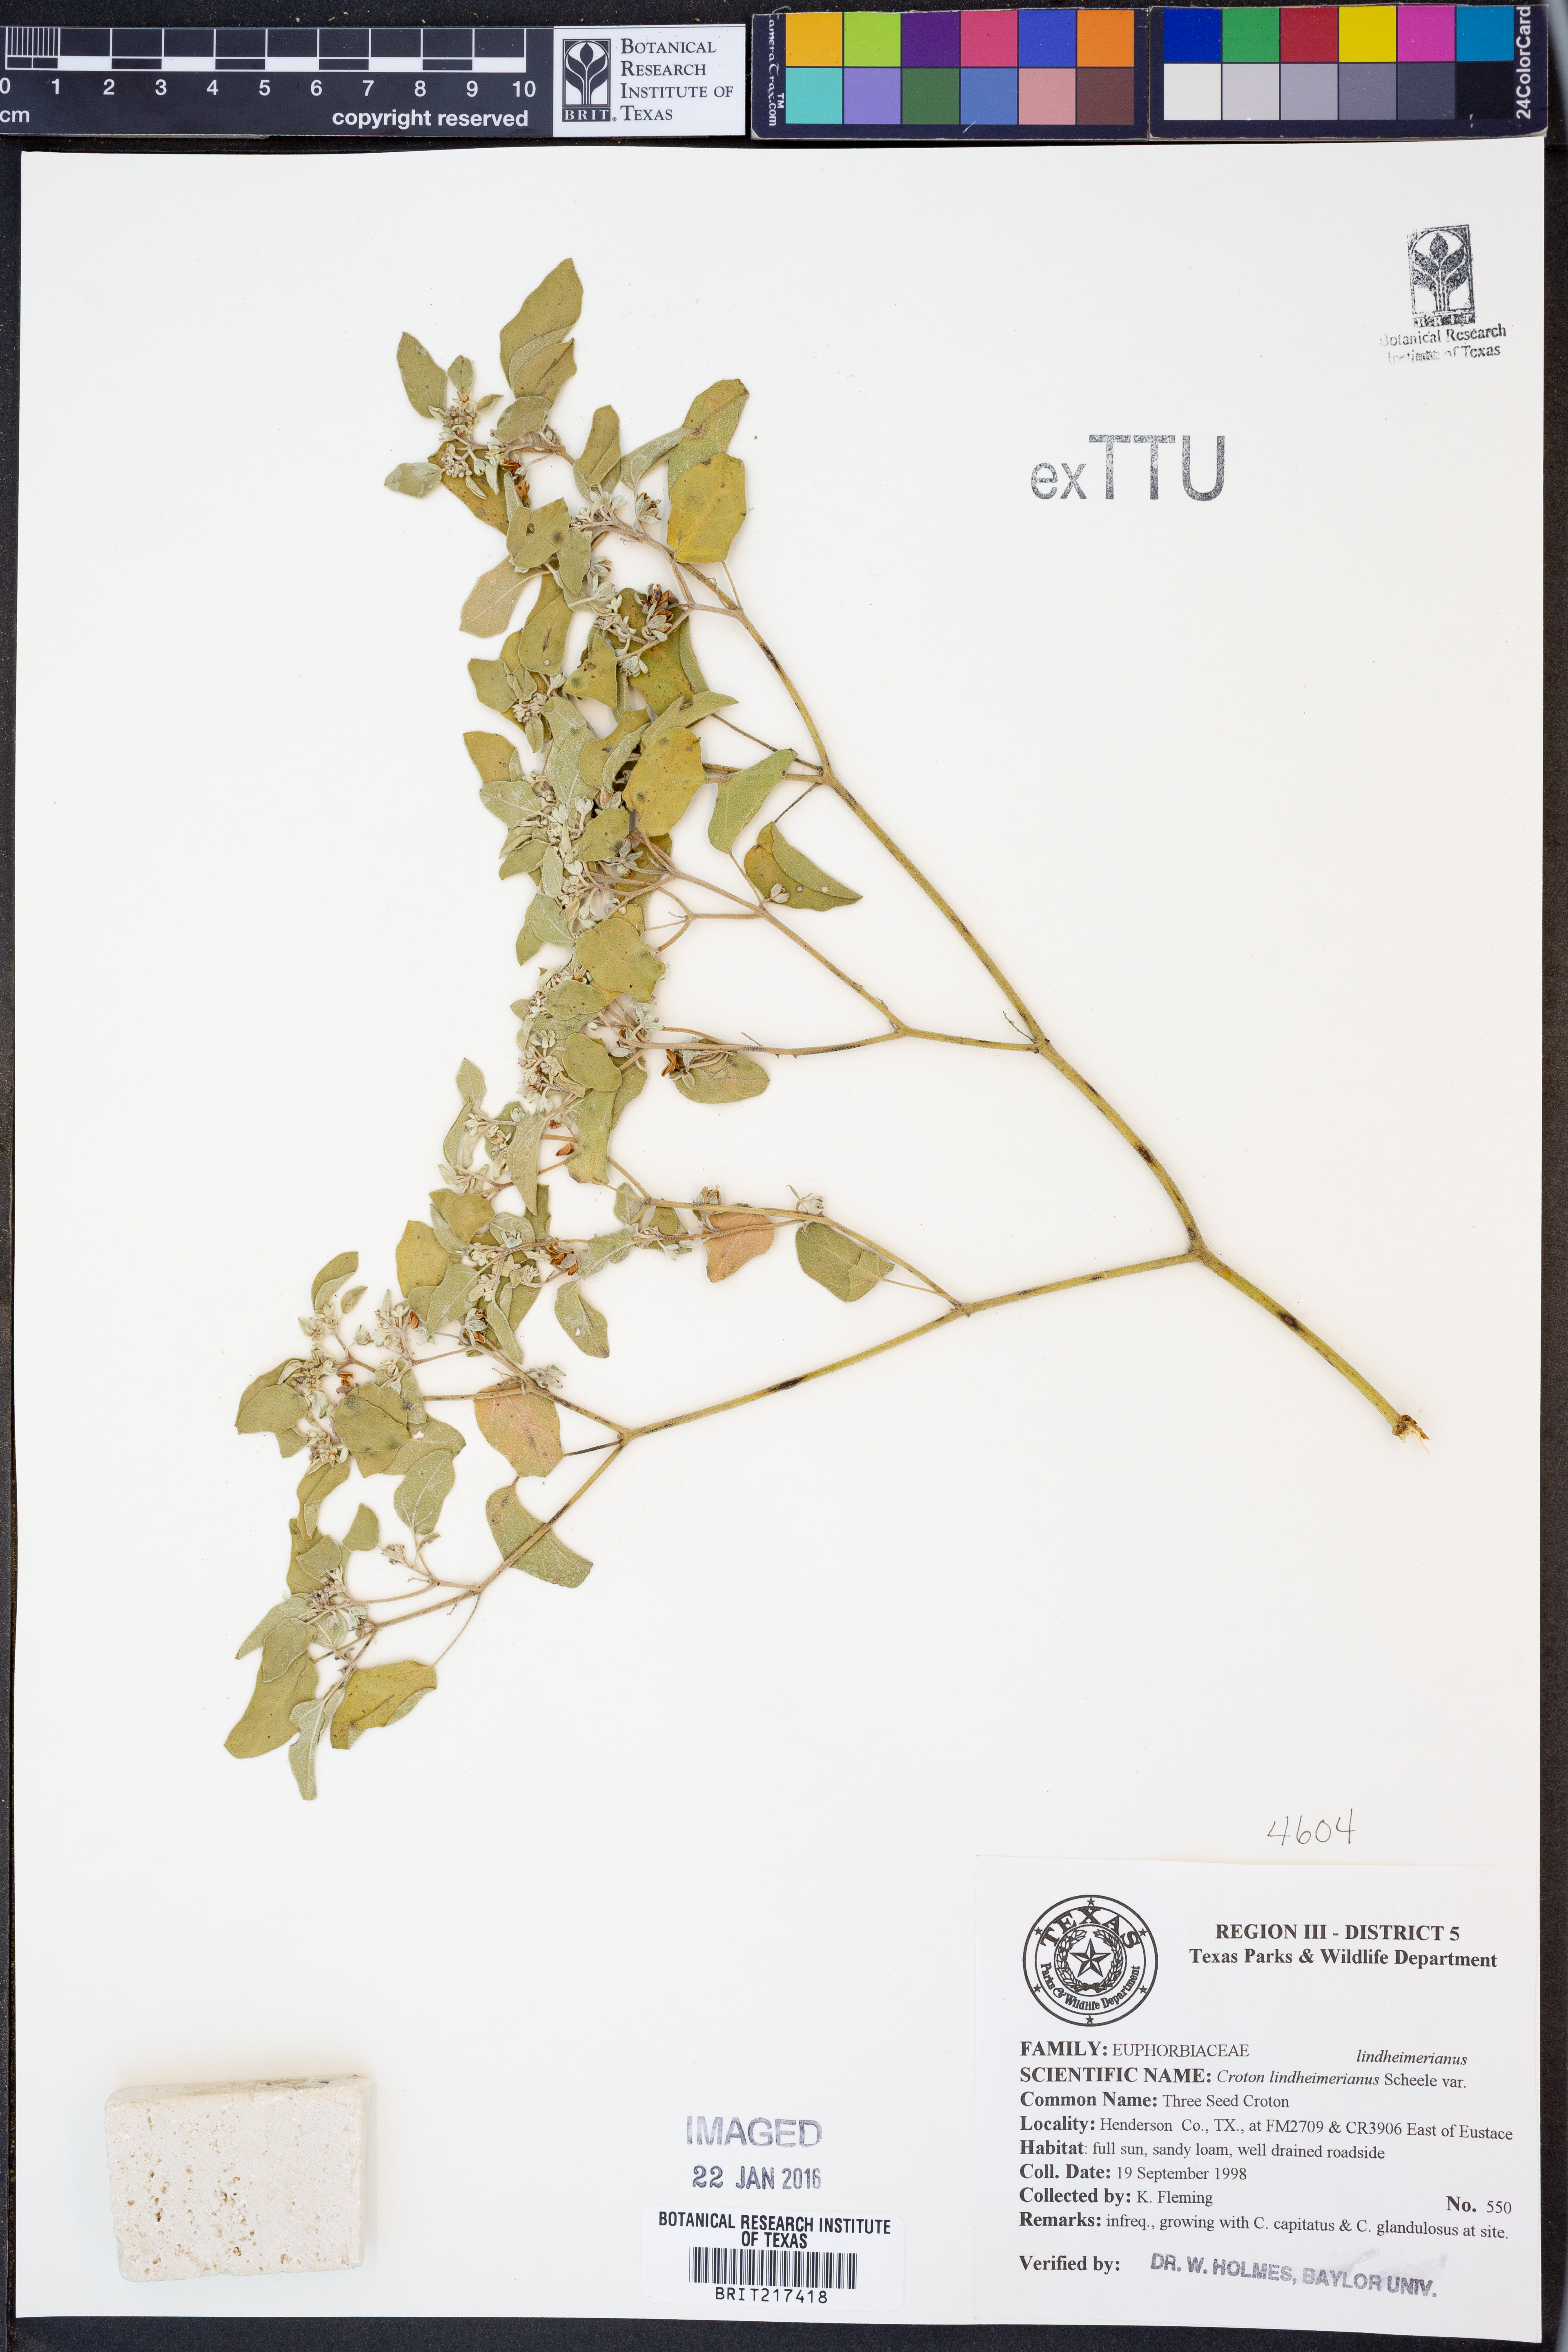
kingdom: Plantae
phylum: Tracheophyta
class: Magnoliopsida
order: Malpighiales
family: Euphorbiaceae
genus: Croton
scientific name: Croton lindheimerianus
